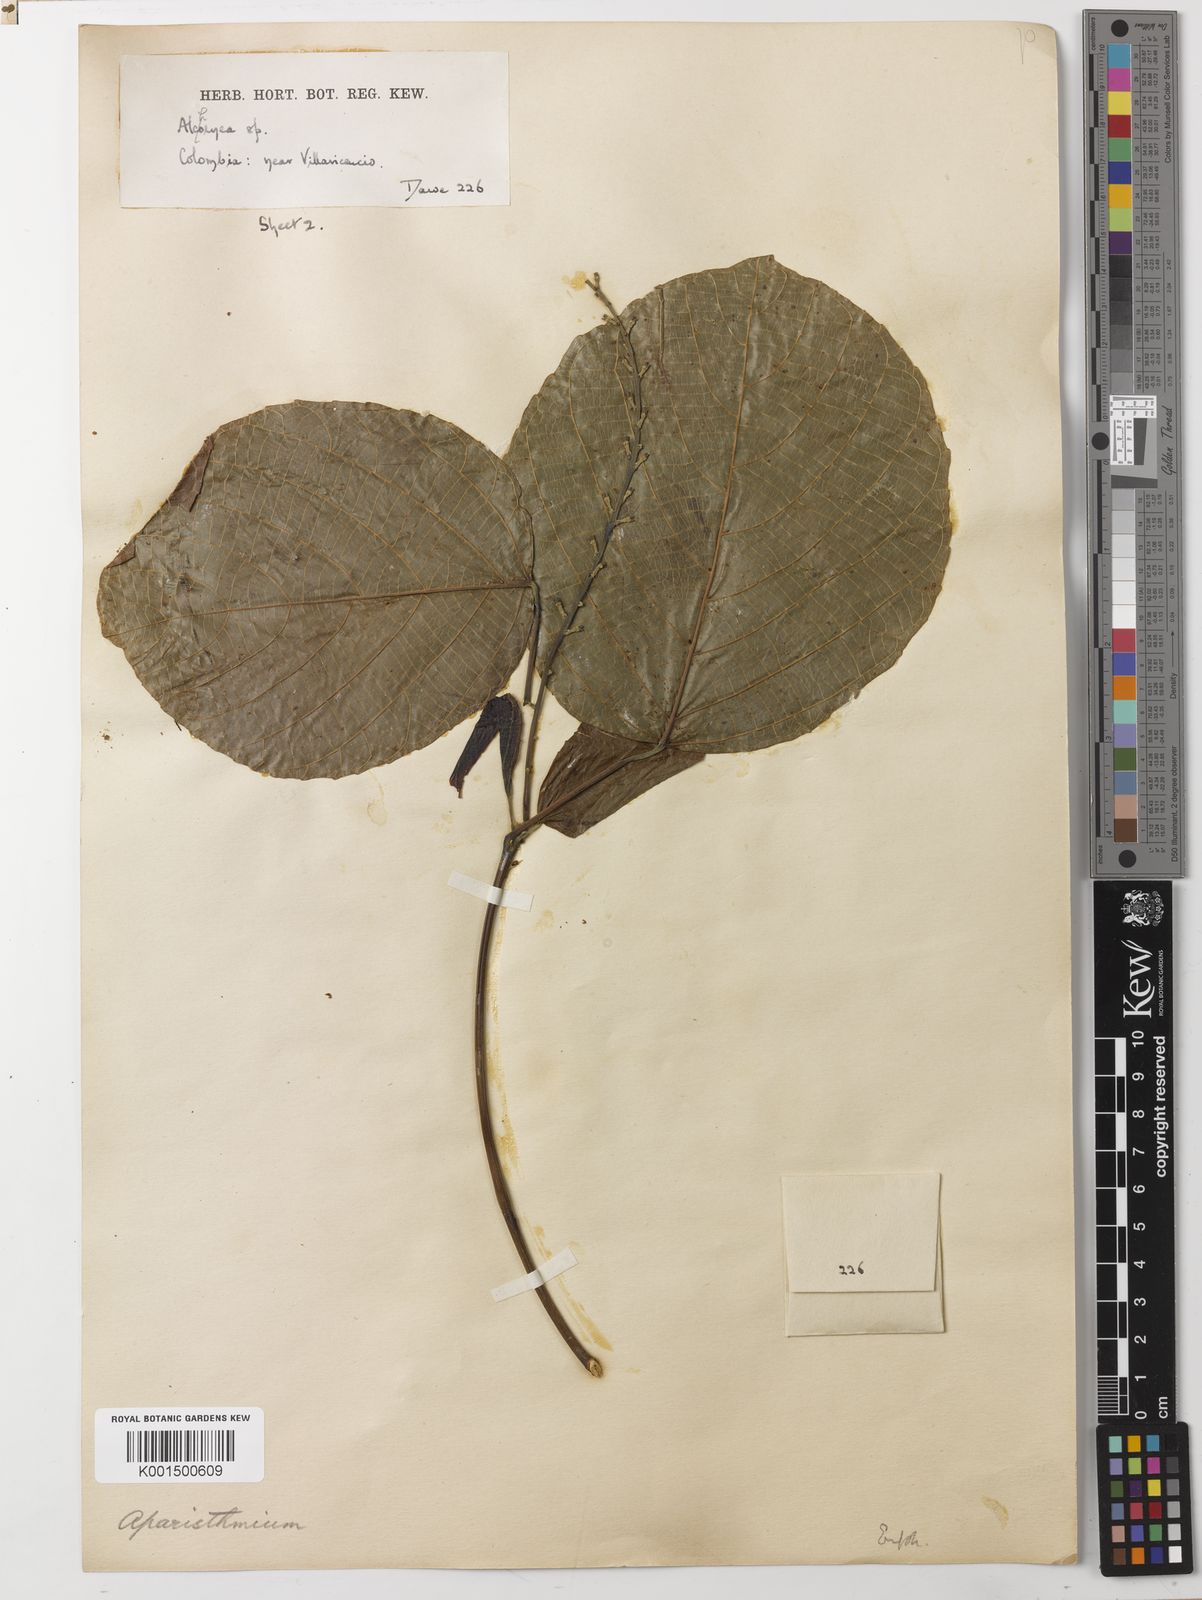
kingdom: Plantae
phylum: Tracheophyta
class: Magnoliopsida
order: Malpighiales
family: Euphorbiaceae
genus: Aparisthmium
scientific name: Aparisthmium cordatum
